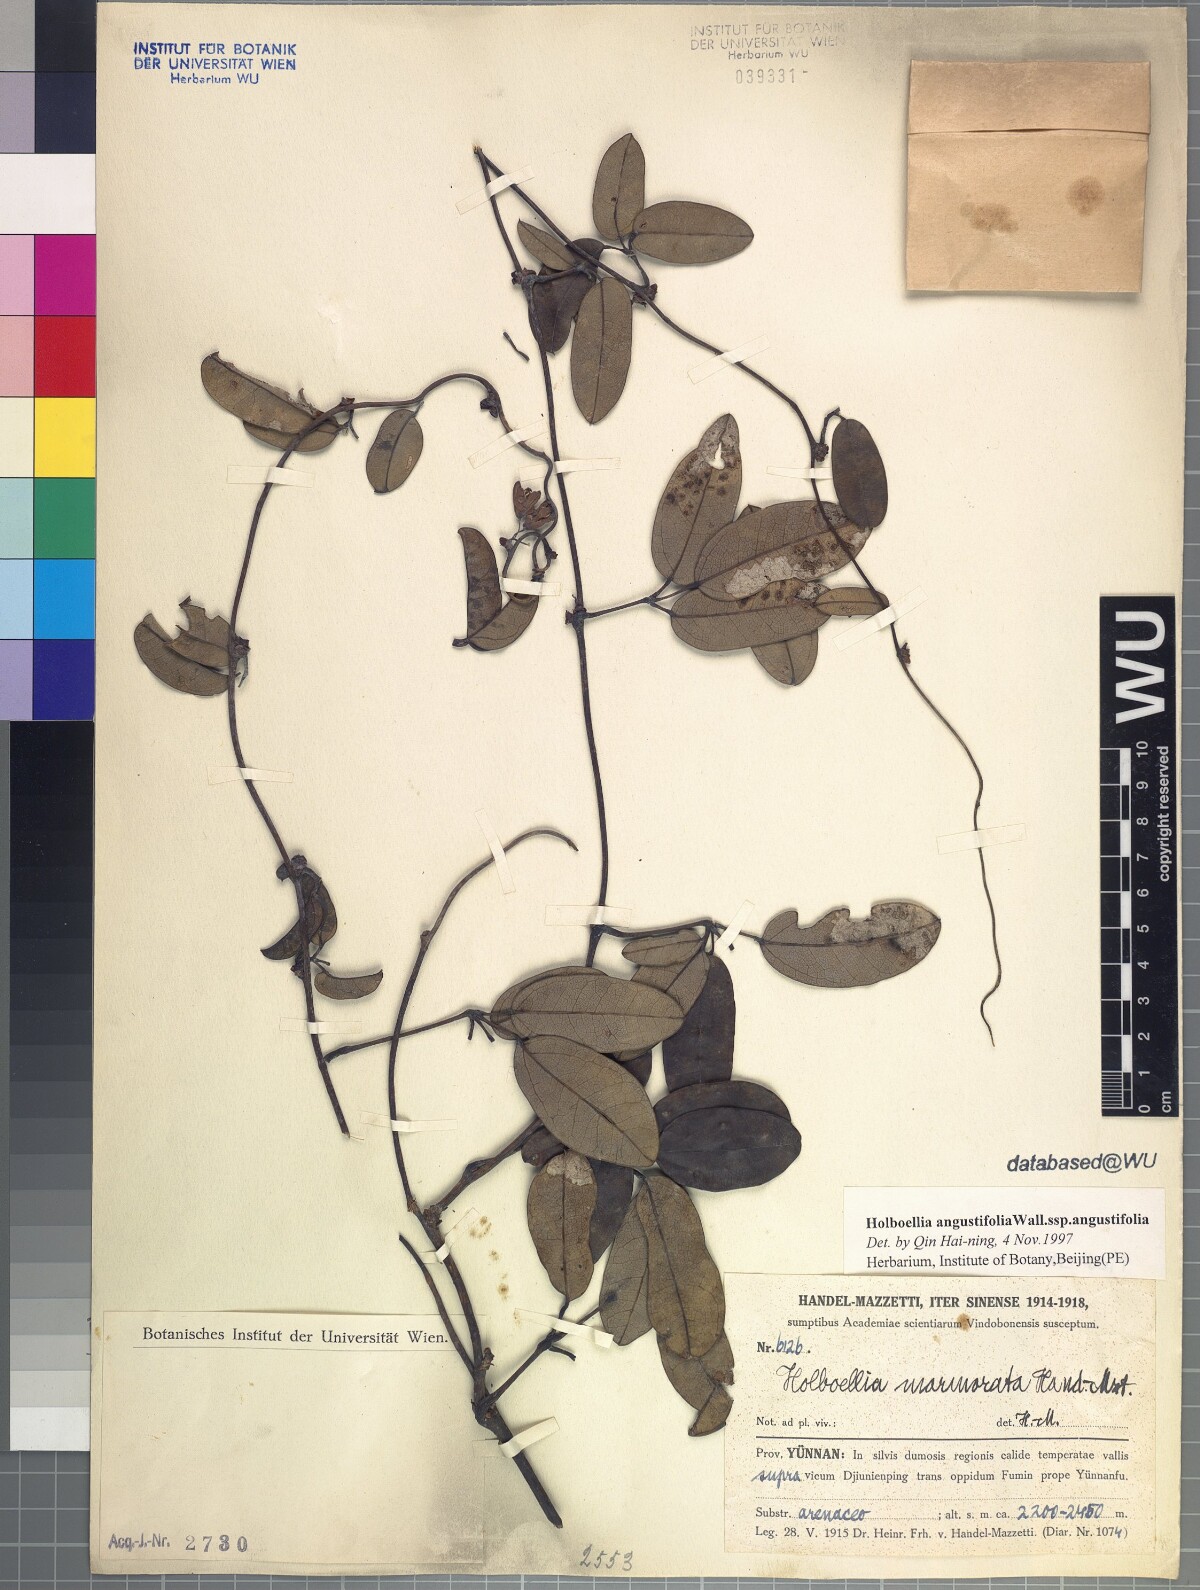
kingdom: Plantae
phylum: Tracheophyta
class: Magnoliopsida
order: Ranunculales
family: Lardizabalaceae
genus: Stauntonia
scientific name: Stauntonia angustifolia
